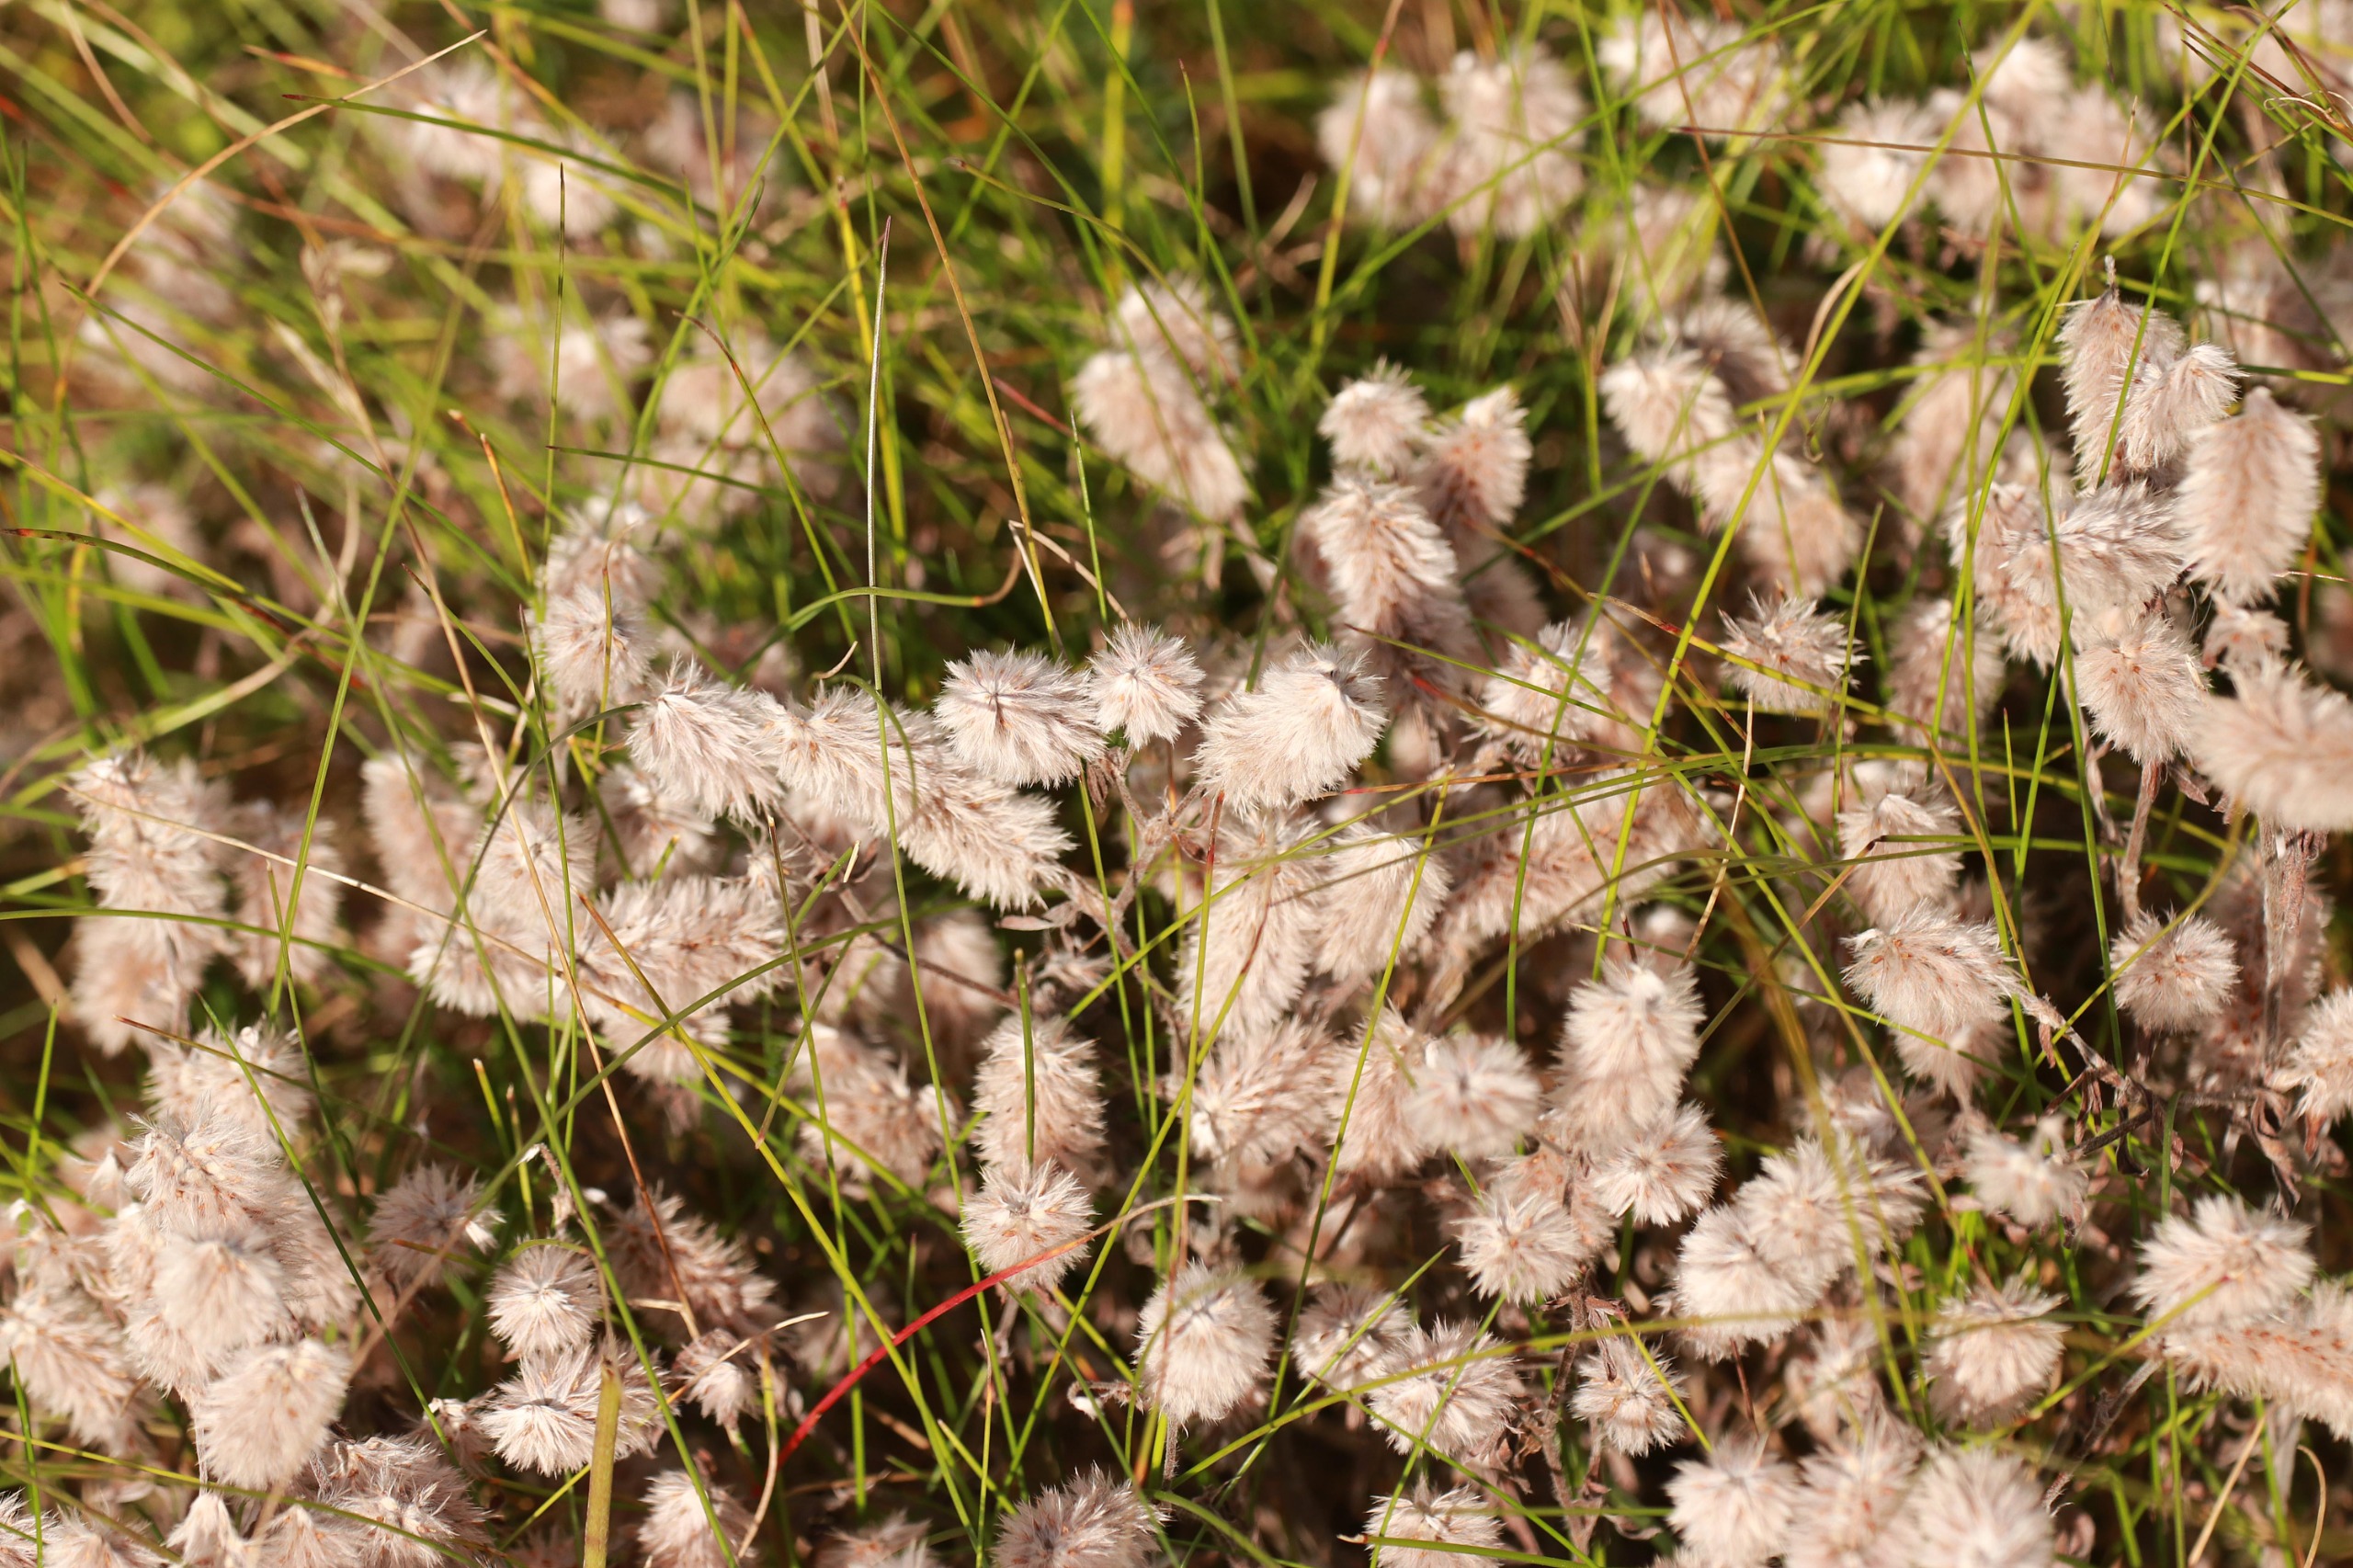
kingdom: Plantae
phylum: Tracheophyta
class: Magnoliopsida
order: Fabales
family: Fabaceae
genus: Trifolium
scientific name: Trifolium arvense
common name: Hare-kløver
